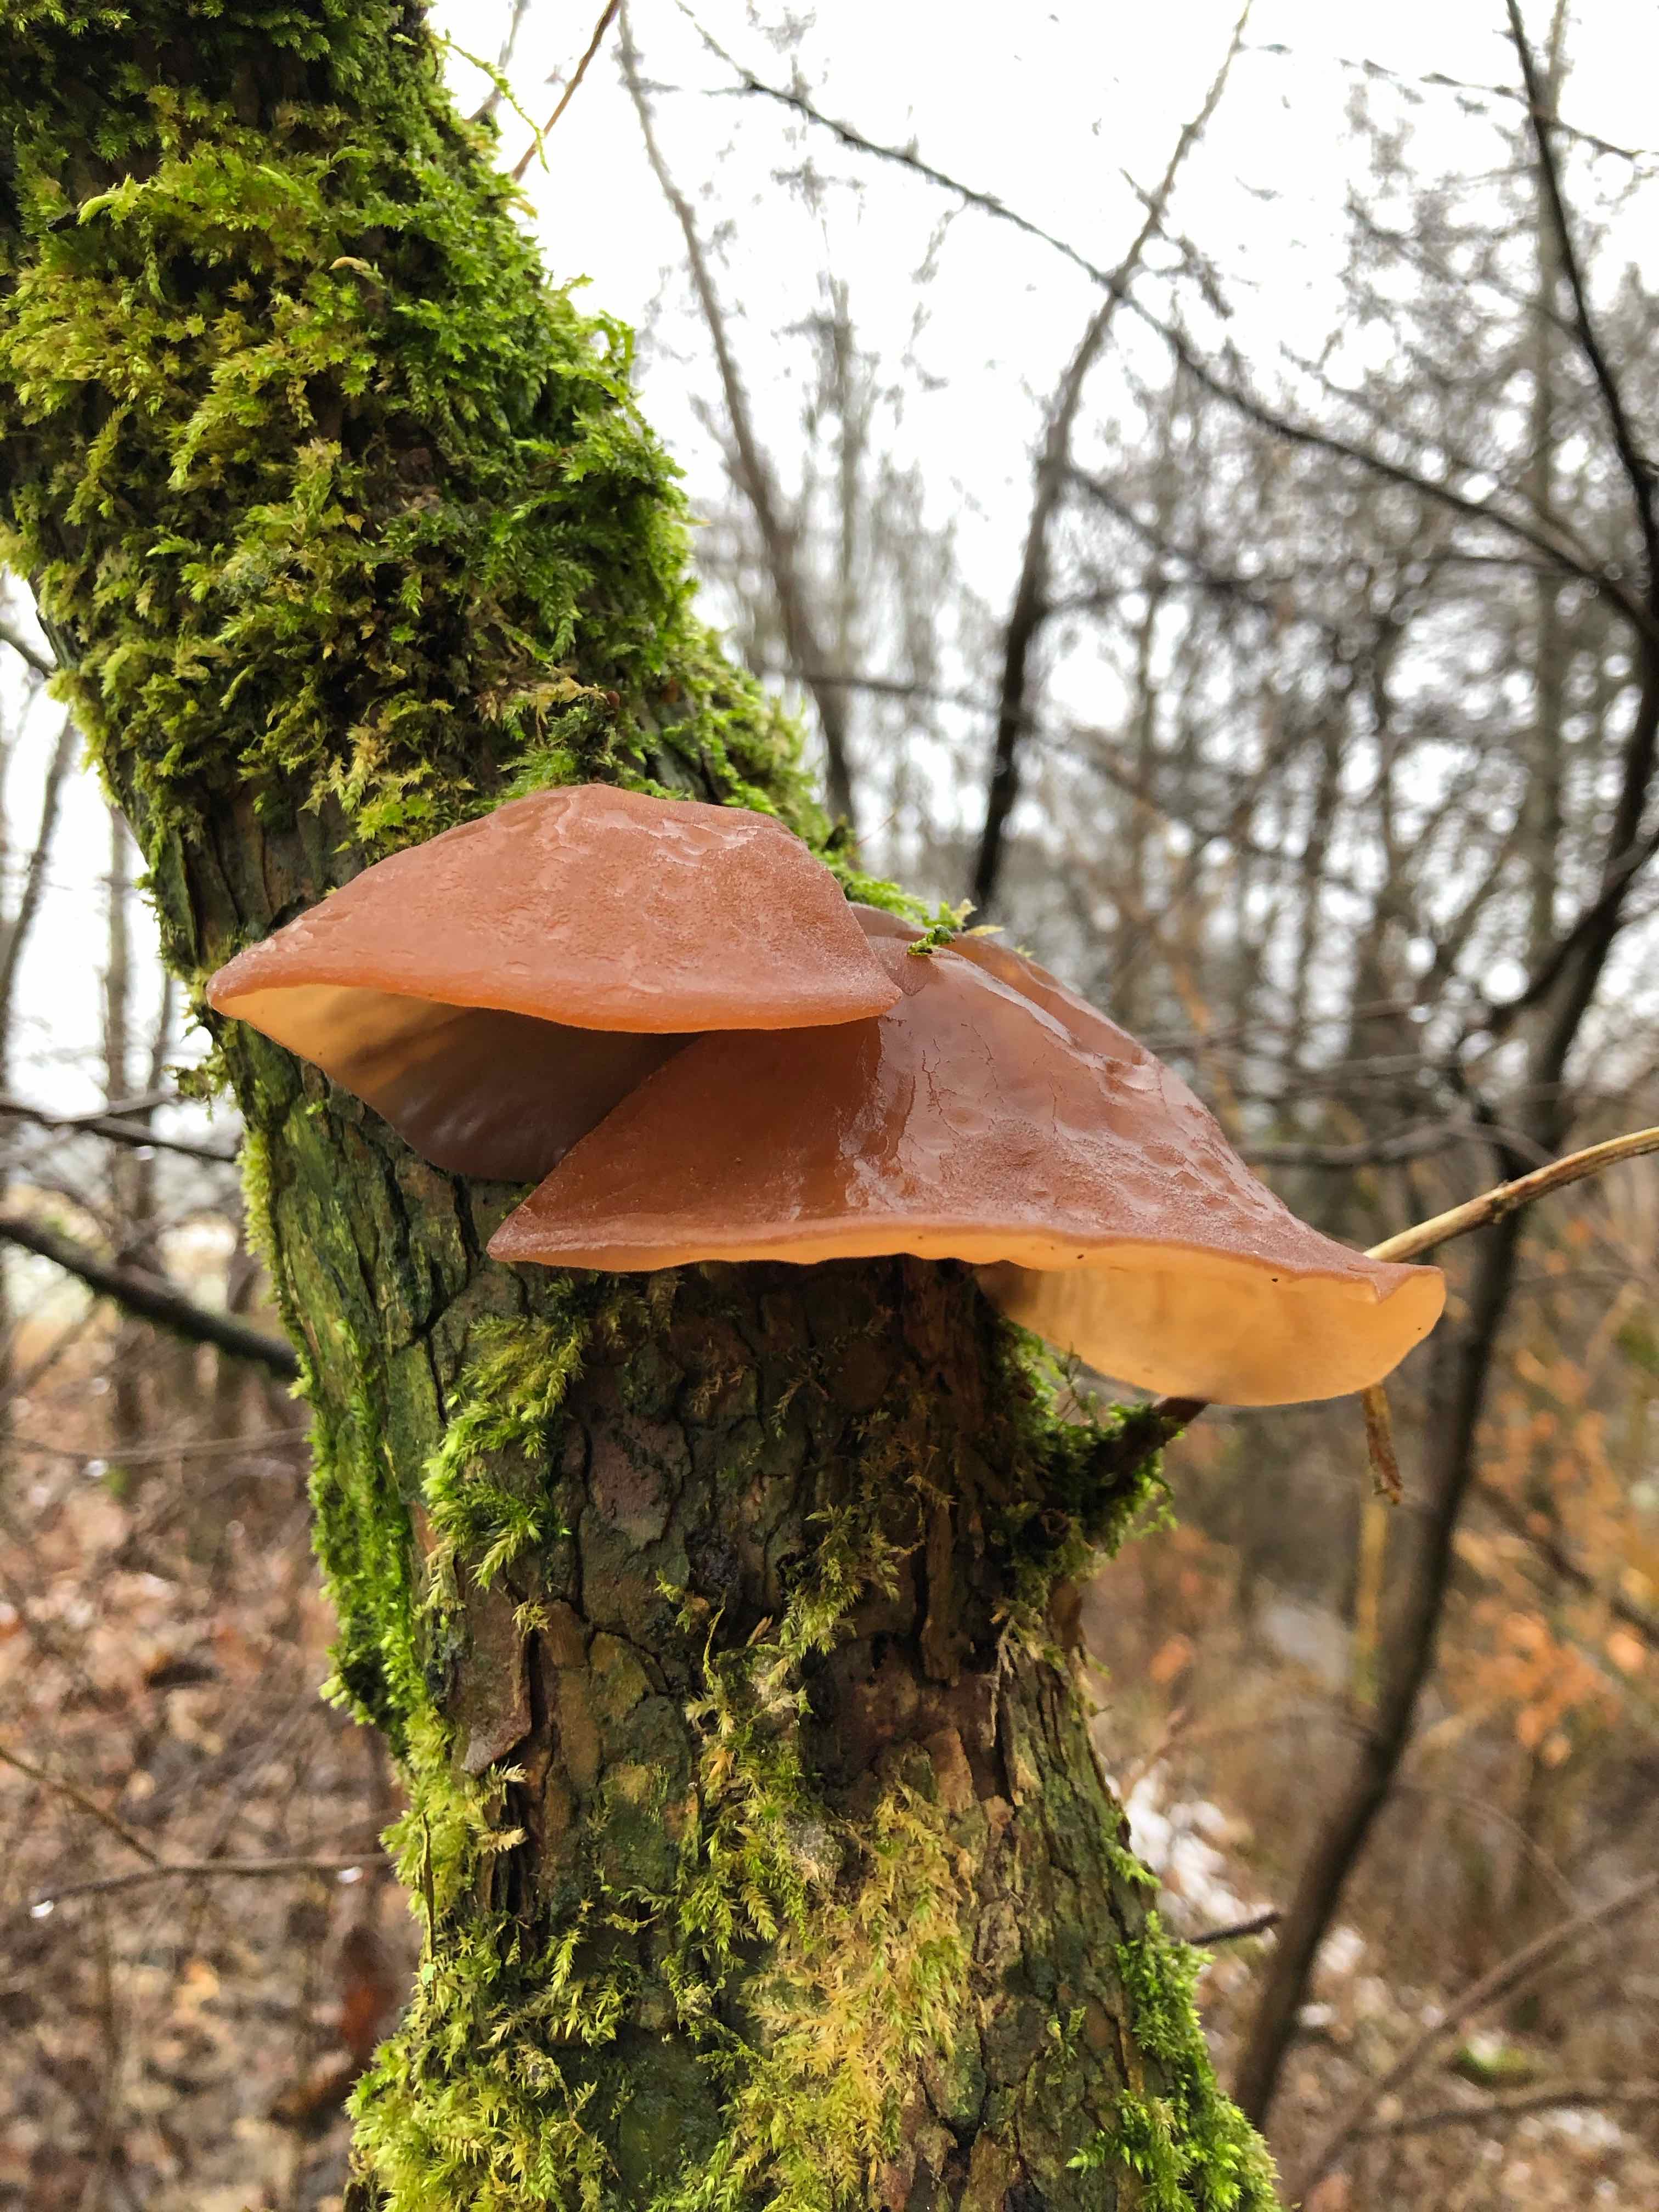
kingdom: Fungi
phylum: Basidiomycota
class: Agaricomycetes
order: Auriculariales
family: Auriculariaceae
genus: Auricularia
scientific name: Auricularia auricula-judae
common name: almindelig judasøre
